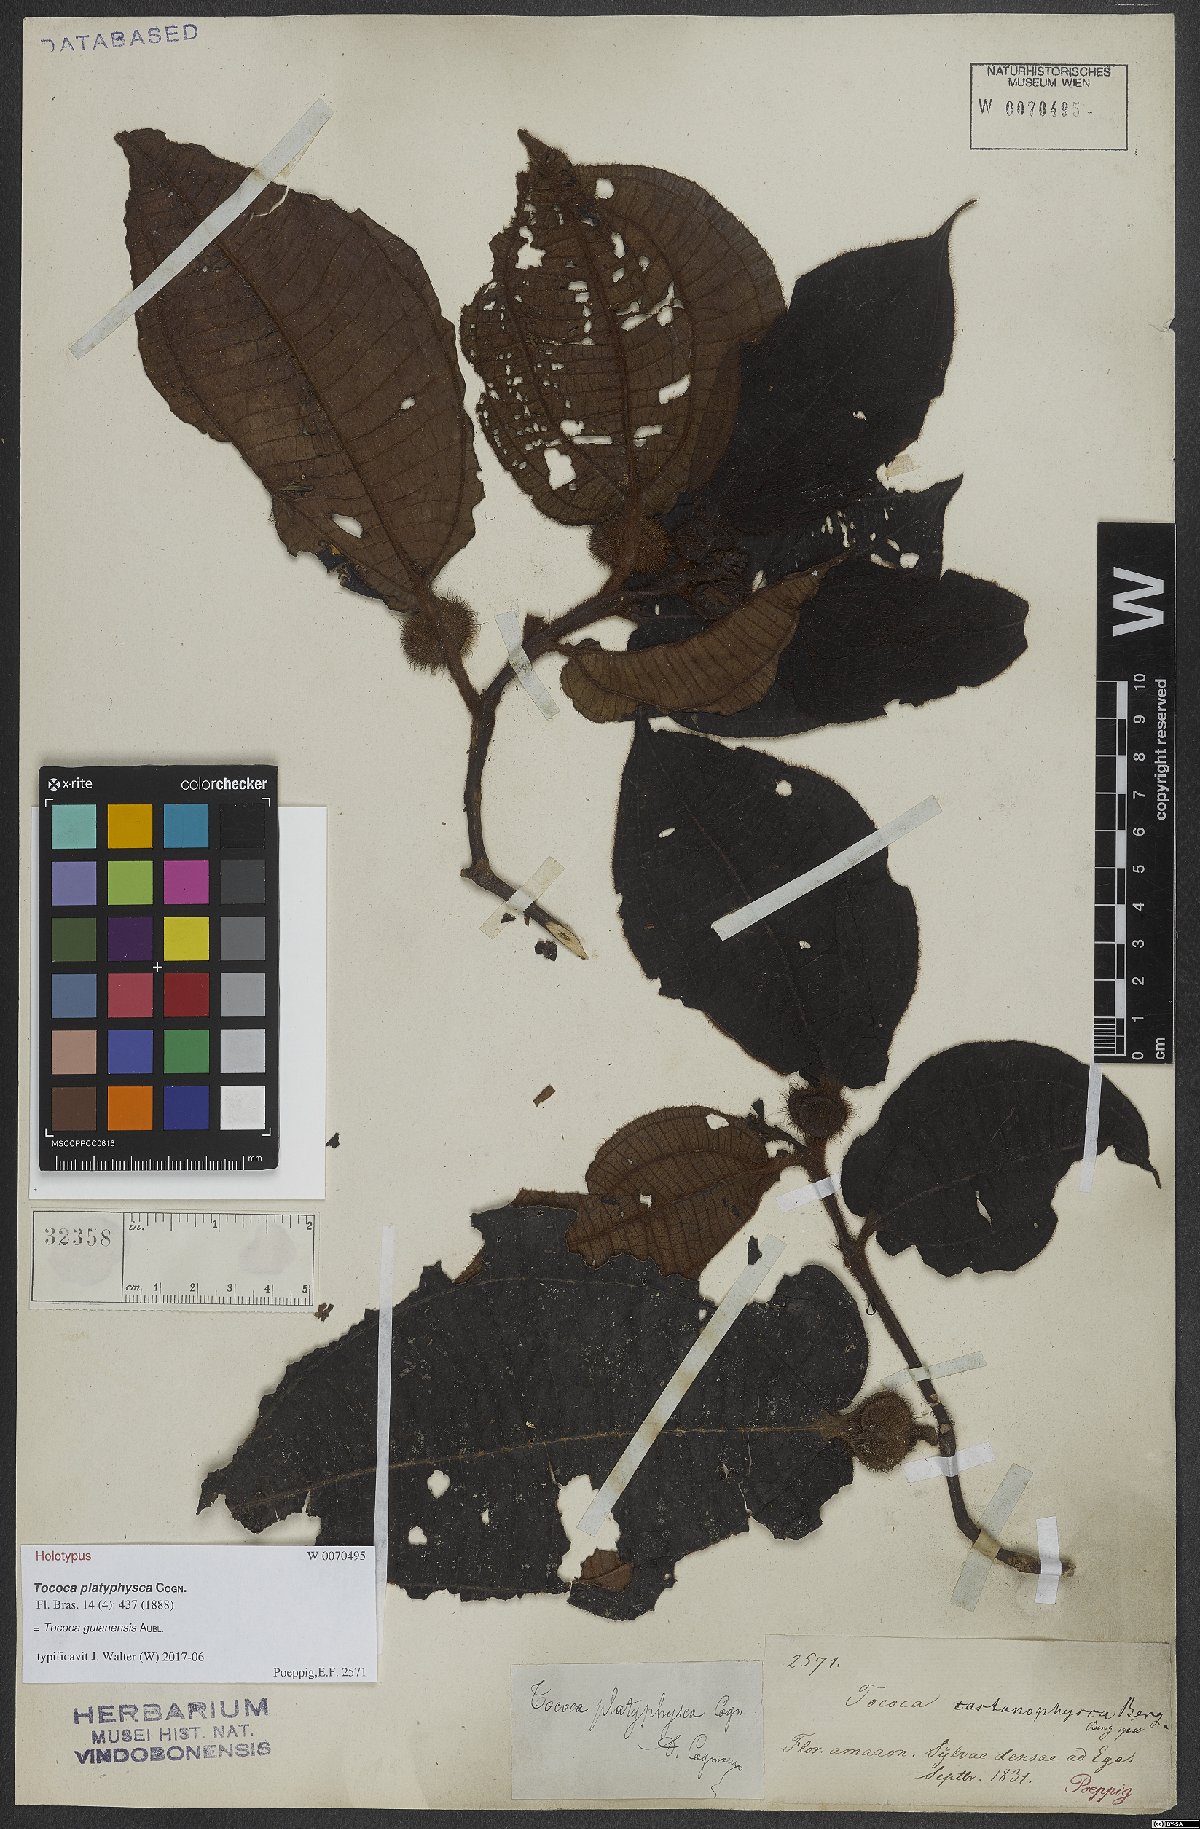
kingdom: Plantae
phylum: Tracheophyta
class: Magnoliopsida
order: Myrtales
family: Melastomataceae
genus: Miconia
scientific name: Miconia tococa
